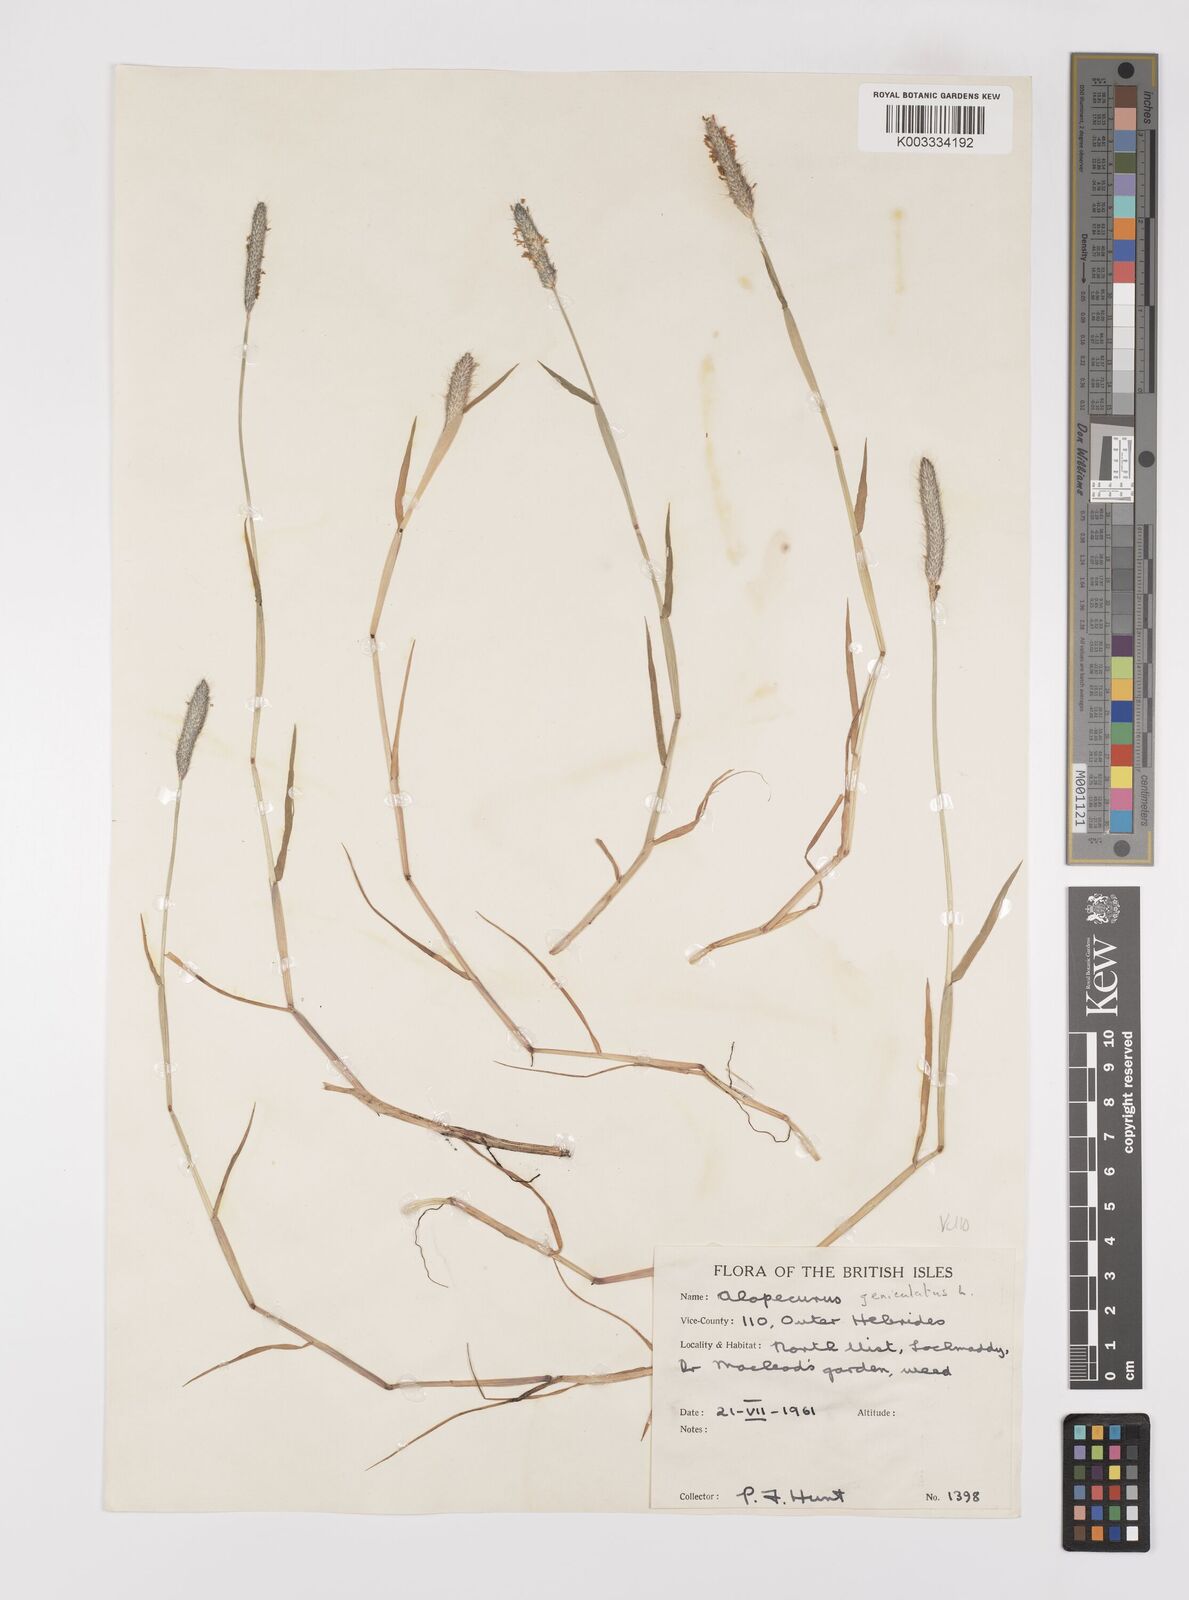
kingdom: Plantae
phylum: Tracheophyta
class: Liliopsida
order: Poales
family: Poaceae
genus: Alopecurus
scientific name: Alopecurus geniculatus
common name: Water foxtail
